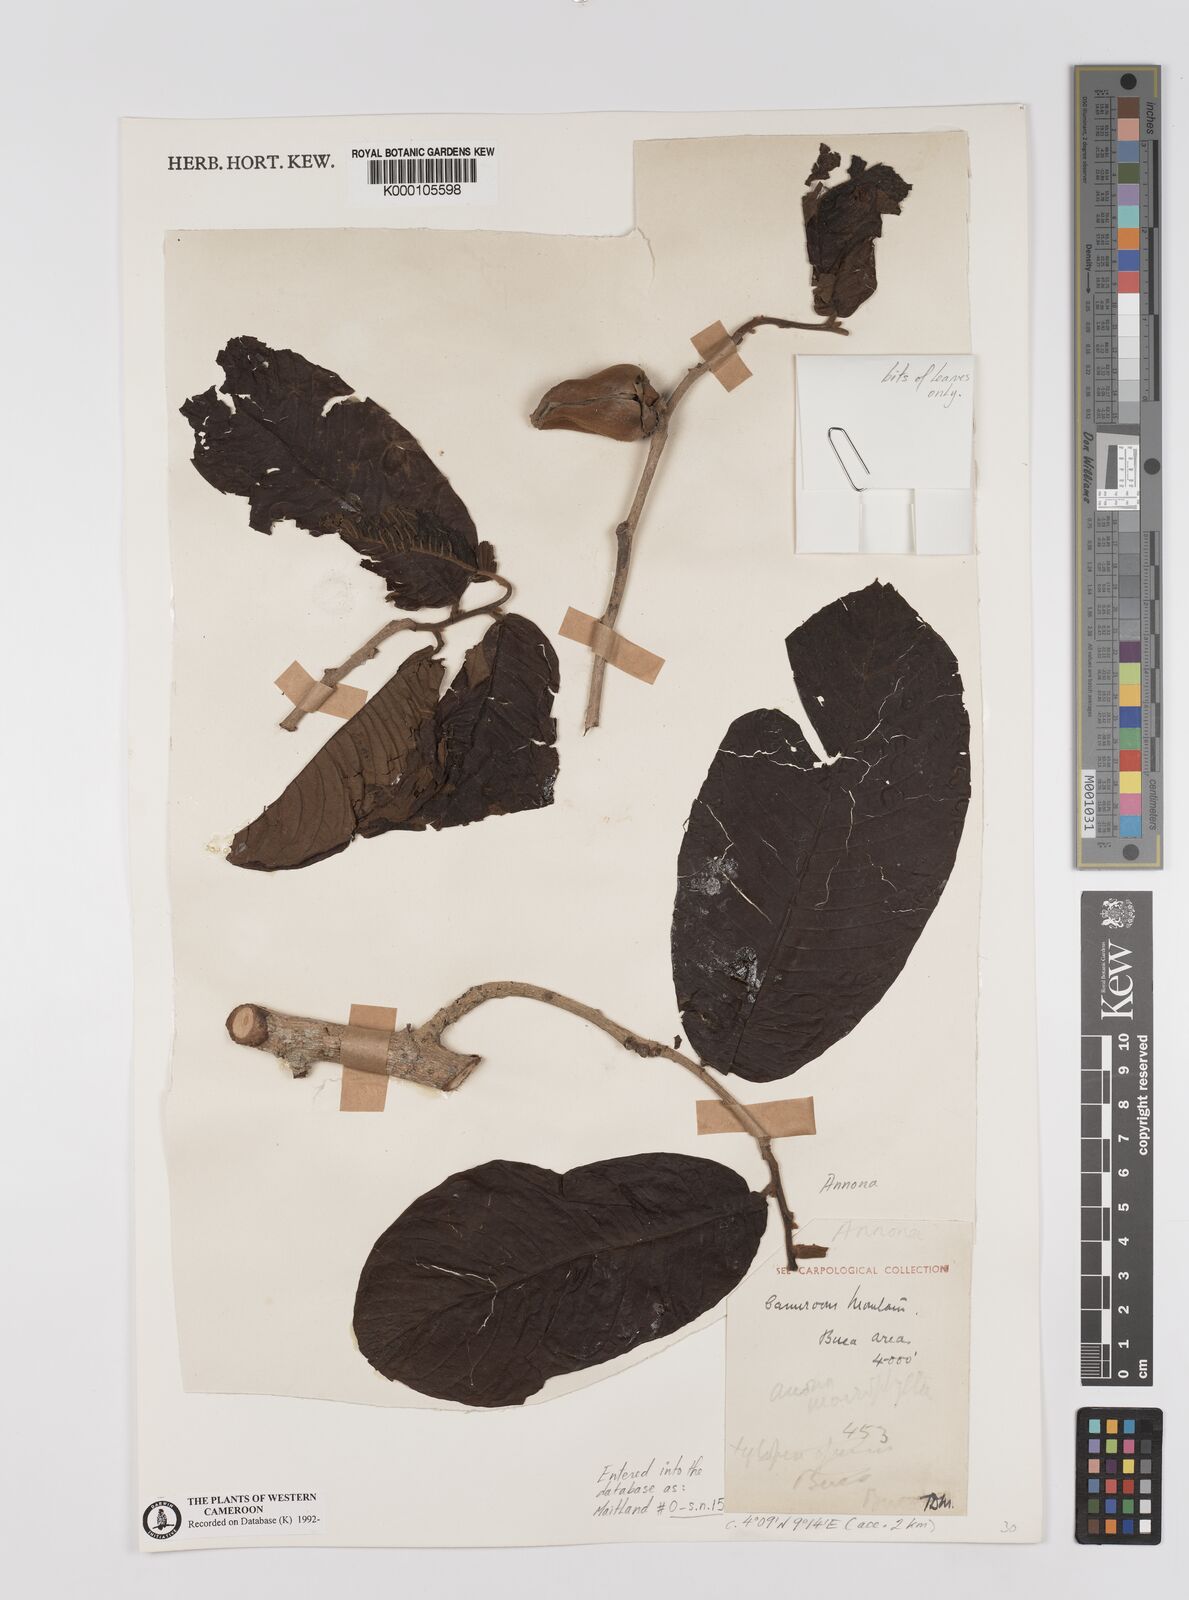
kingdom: Plantae
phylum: Tracheophyta
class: Magnoliopsida
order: Magnoliales
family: Annonaceae
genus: Annona
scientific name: Annona
